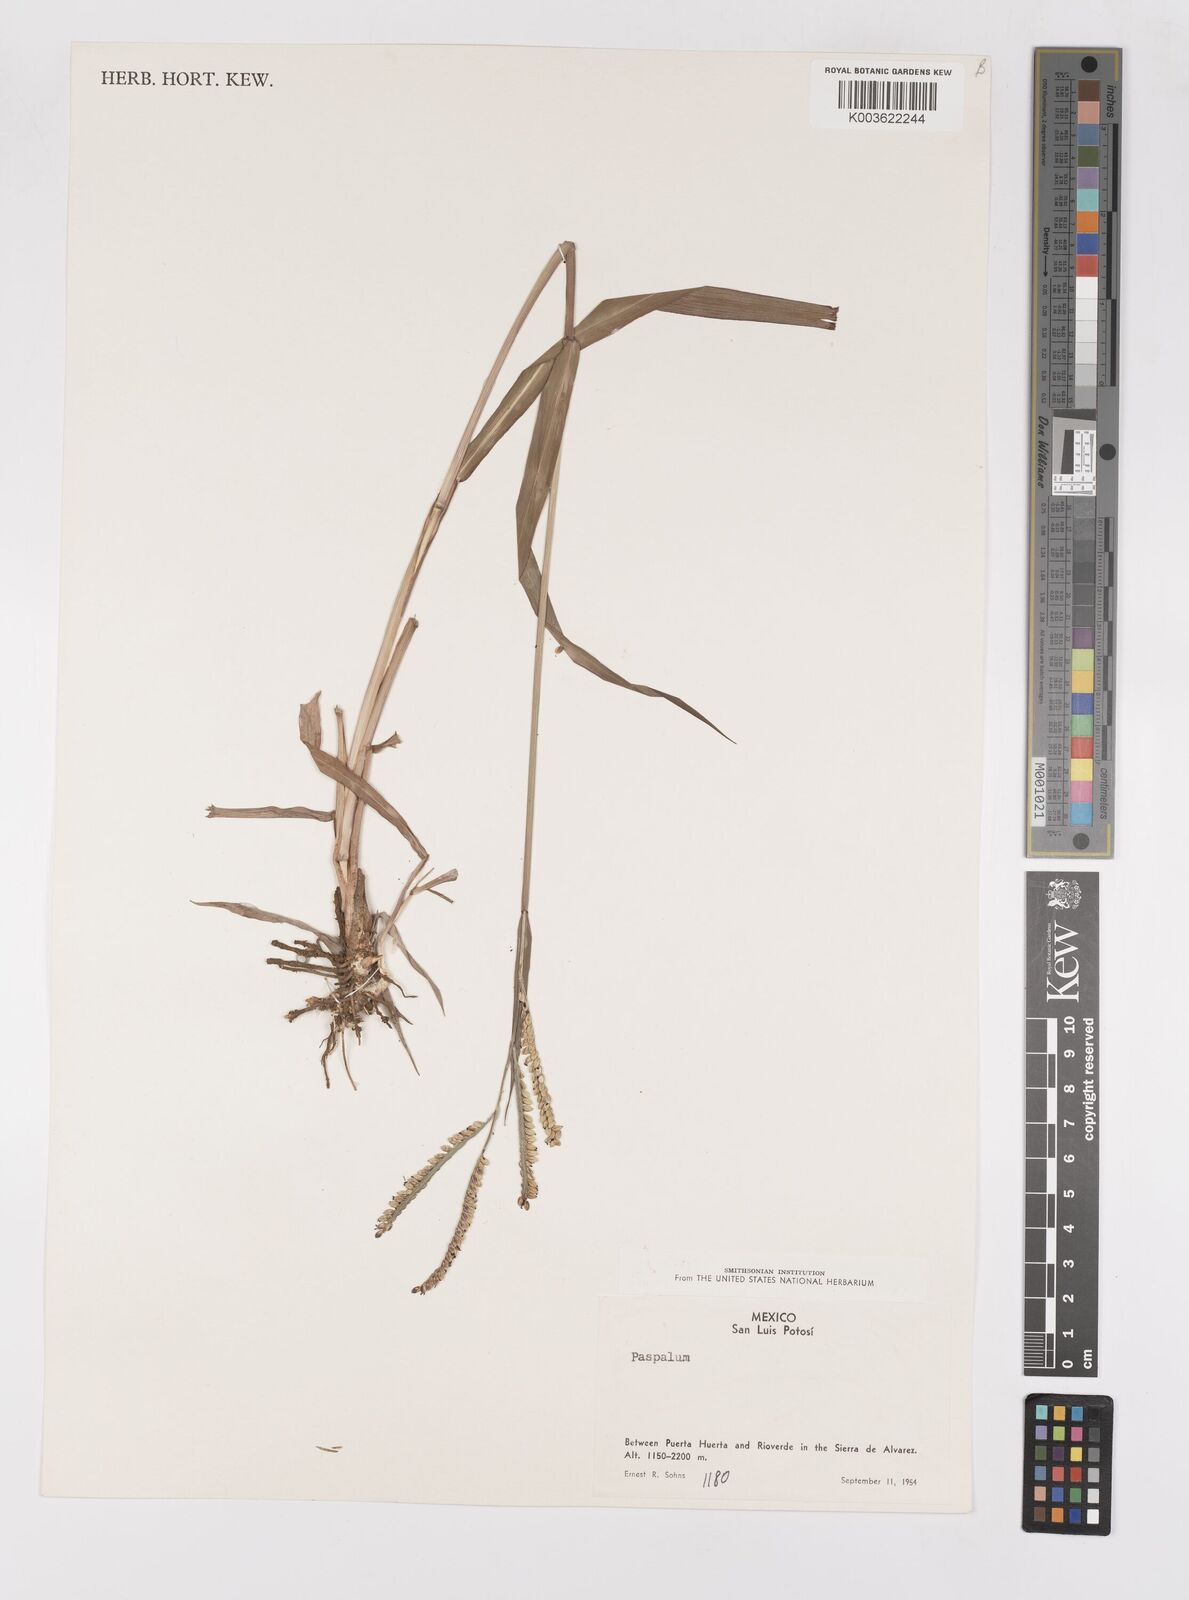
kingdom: Plantae
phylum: Tracheophyta
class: Liliopsida
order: Poales
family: Poaceae
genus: Paspalum
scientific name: Paspalum
